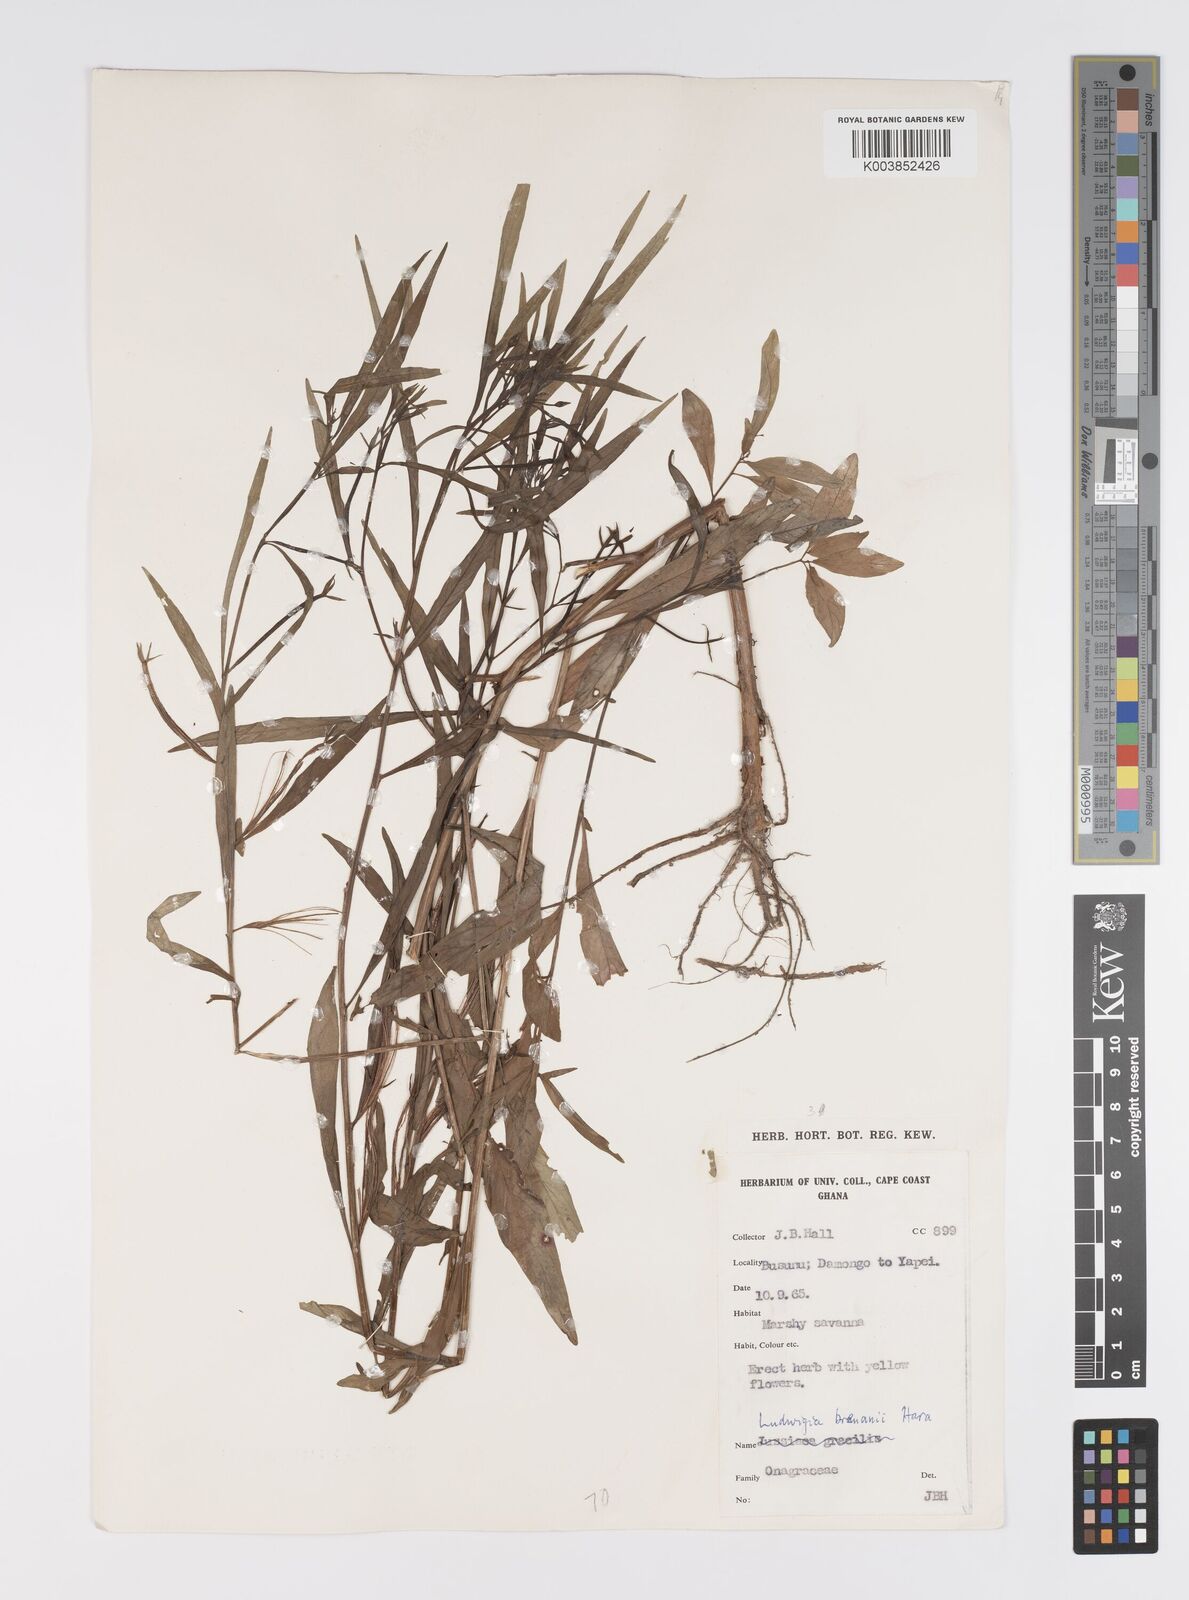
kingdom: Plantae
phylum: Tracheophyta
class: Magnoliopsida
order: Myrtales
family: Onagraceae
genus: Ludwigia
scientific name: Ludwigia brenanii
